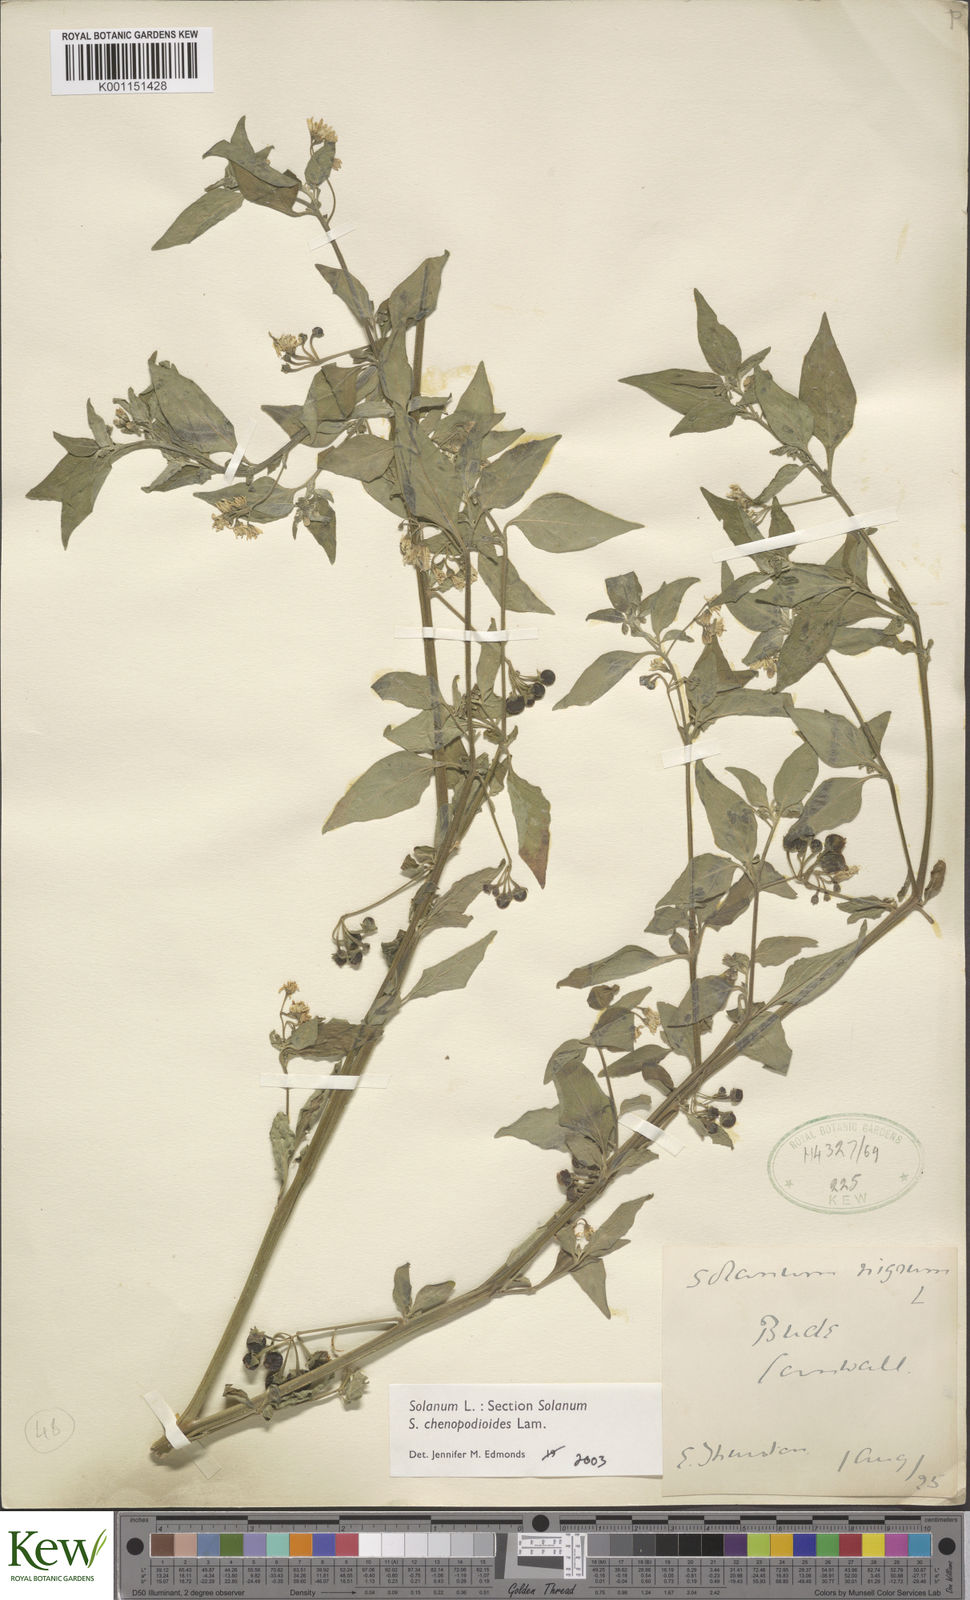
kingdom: Plantae
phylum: Tracheophyta
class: Magnoliopsida
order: Solanales
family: Solanaceae
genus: Solanum
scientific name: Solanum chenopodioides
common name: Tall nightshade
